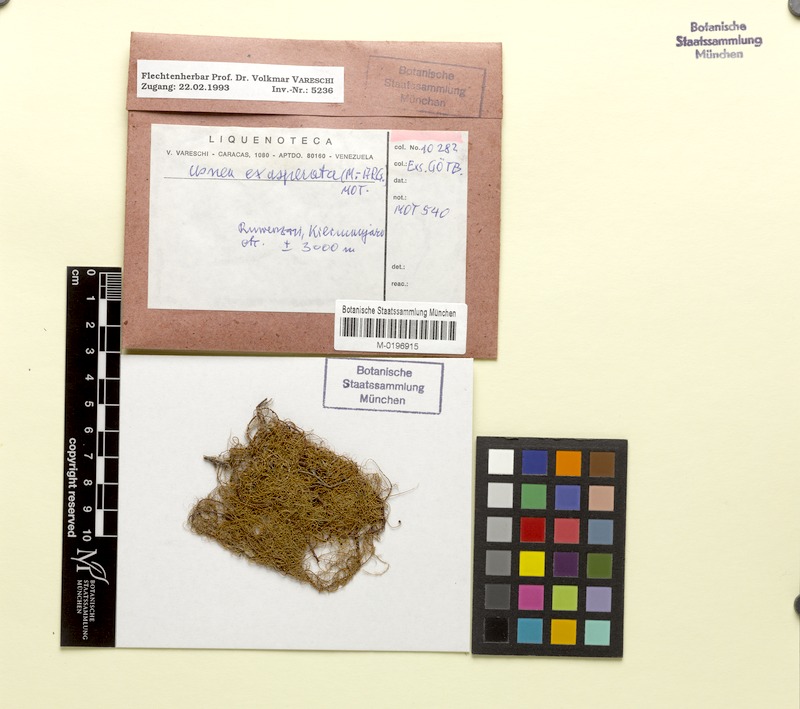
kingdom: Fungi
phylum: Ascomycota
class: Lecanoromycetes
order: Lecanorales
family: Parmeliaceae
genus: Xanthoparmelia
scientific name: Xanthoparmelia amplexula
